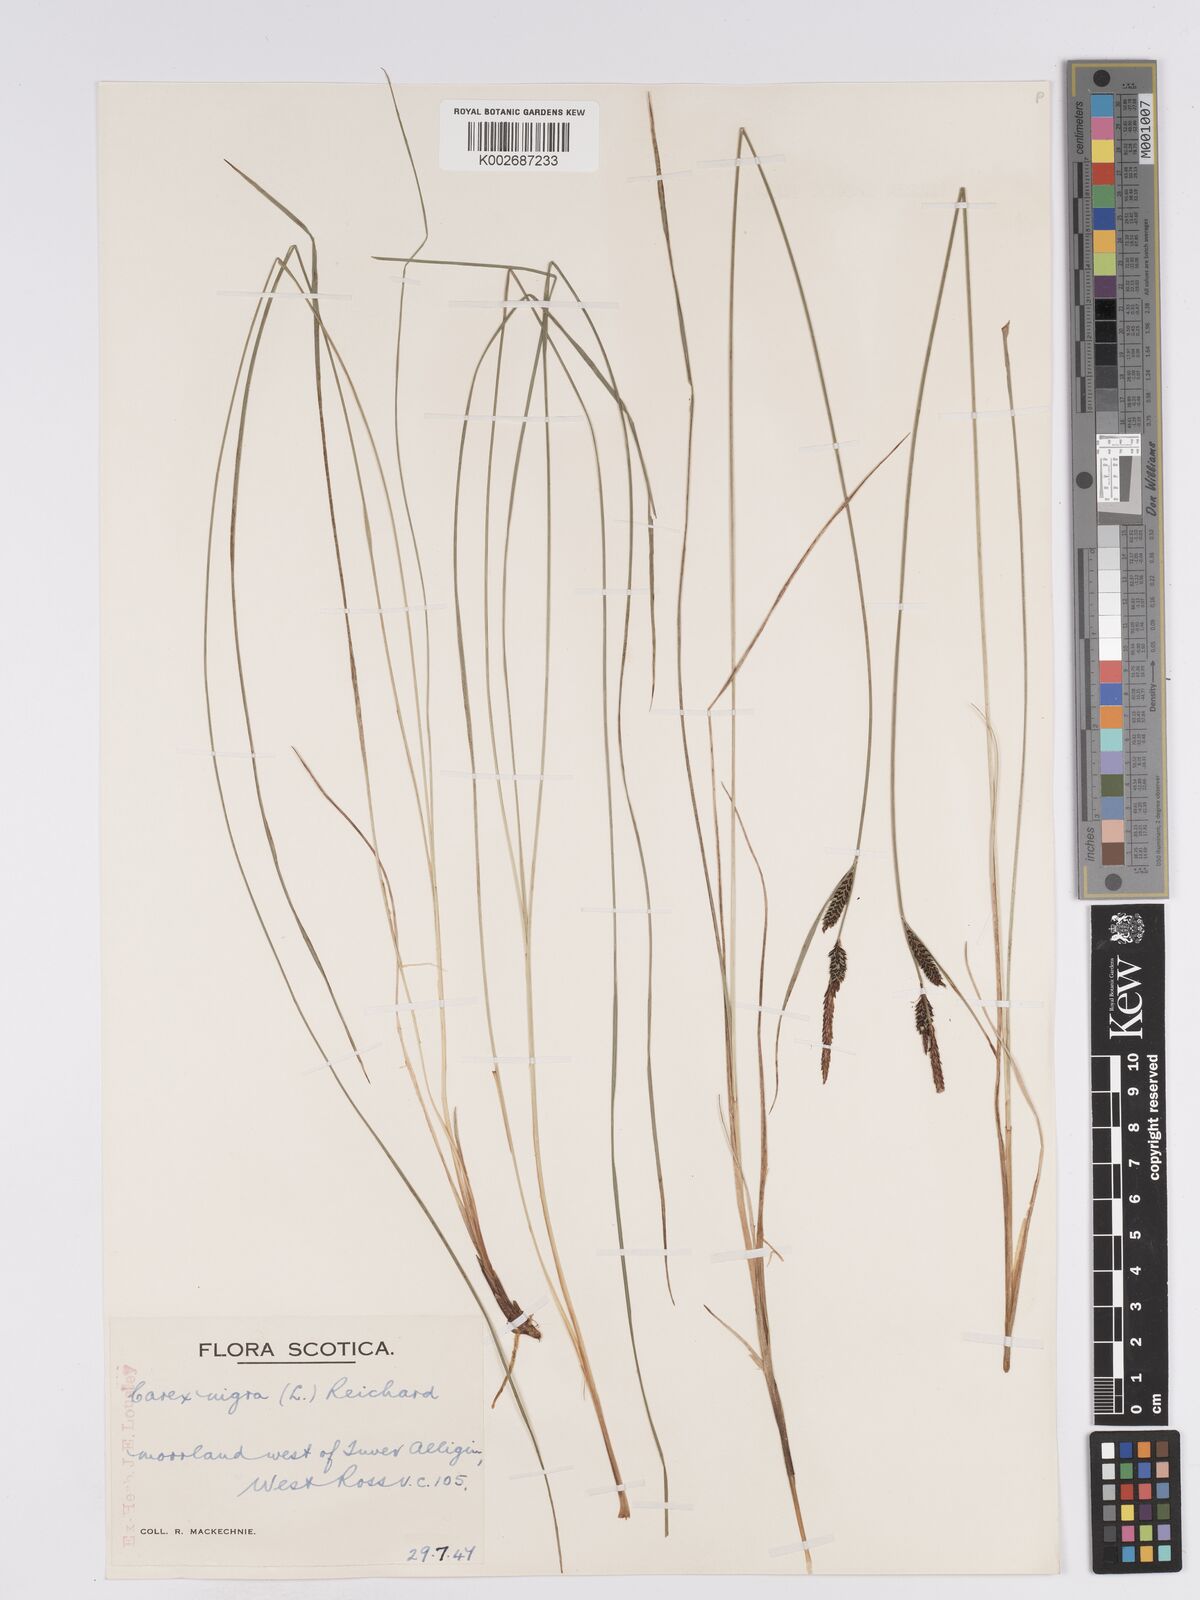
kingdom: Plantae
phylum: Tracheophyta
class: Liliopsida
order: Poales
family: Cyperaceae
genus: Carex
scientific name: Carex nigra
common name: Common sedge
